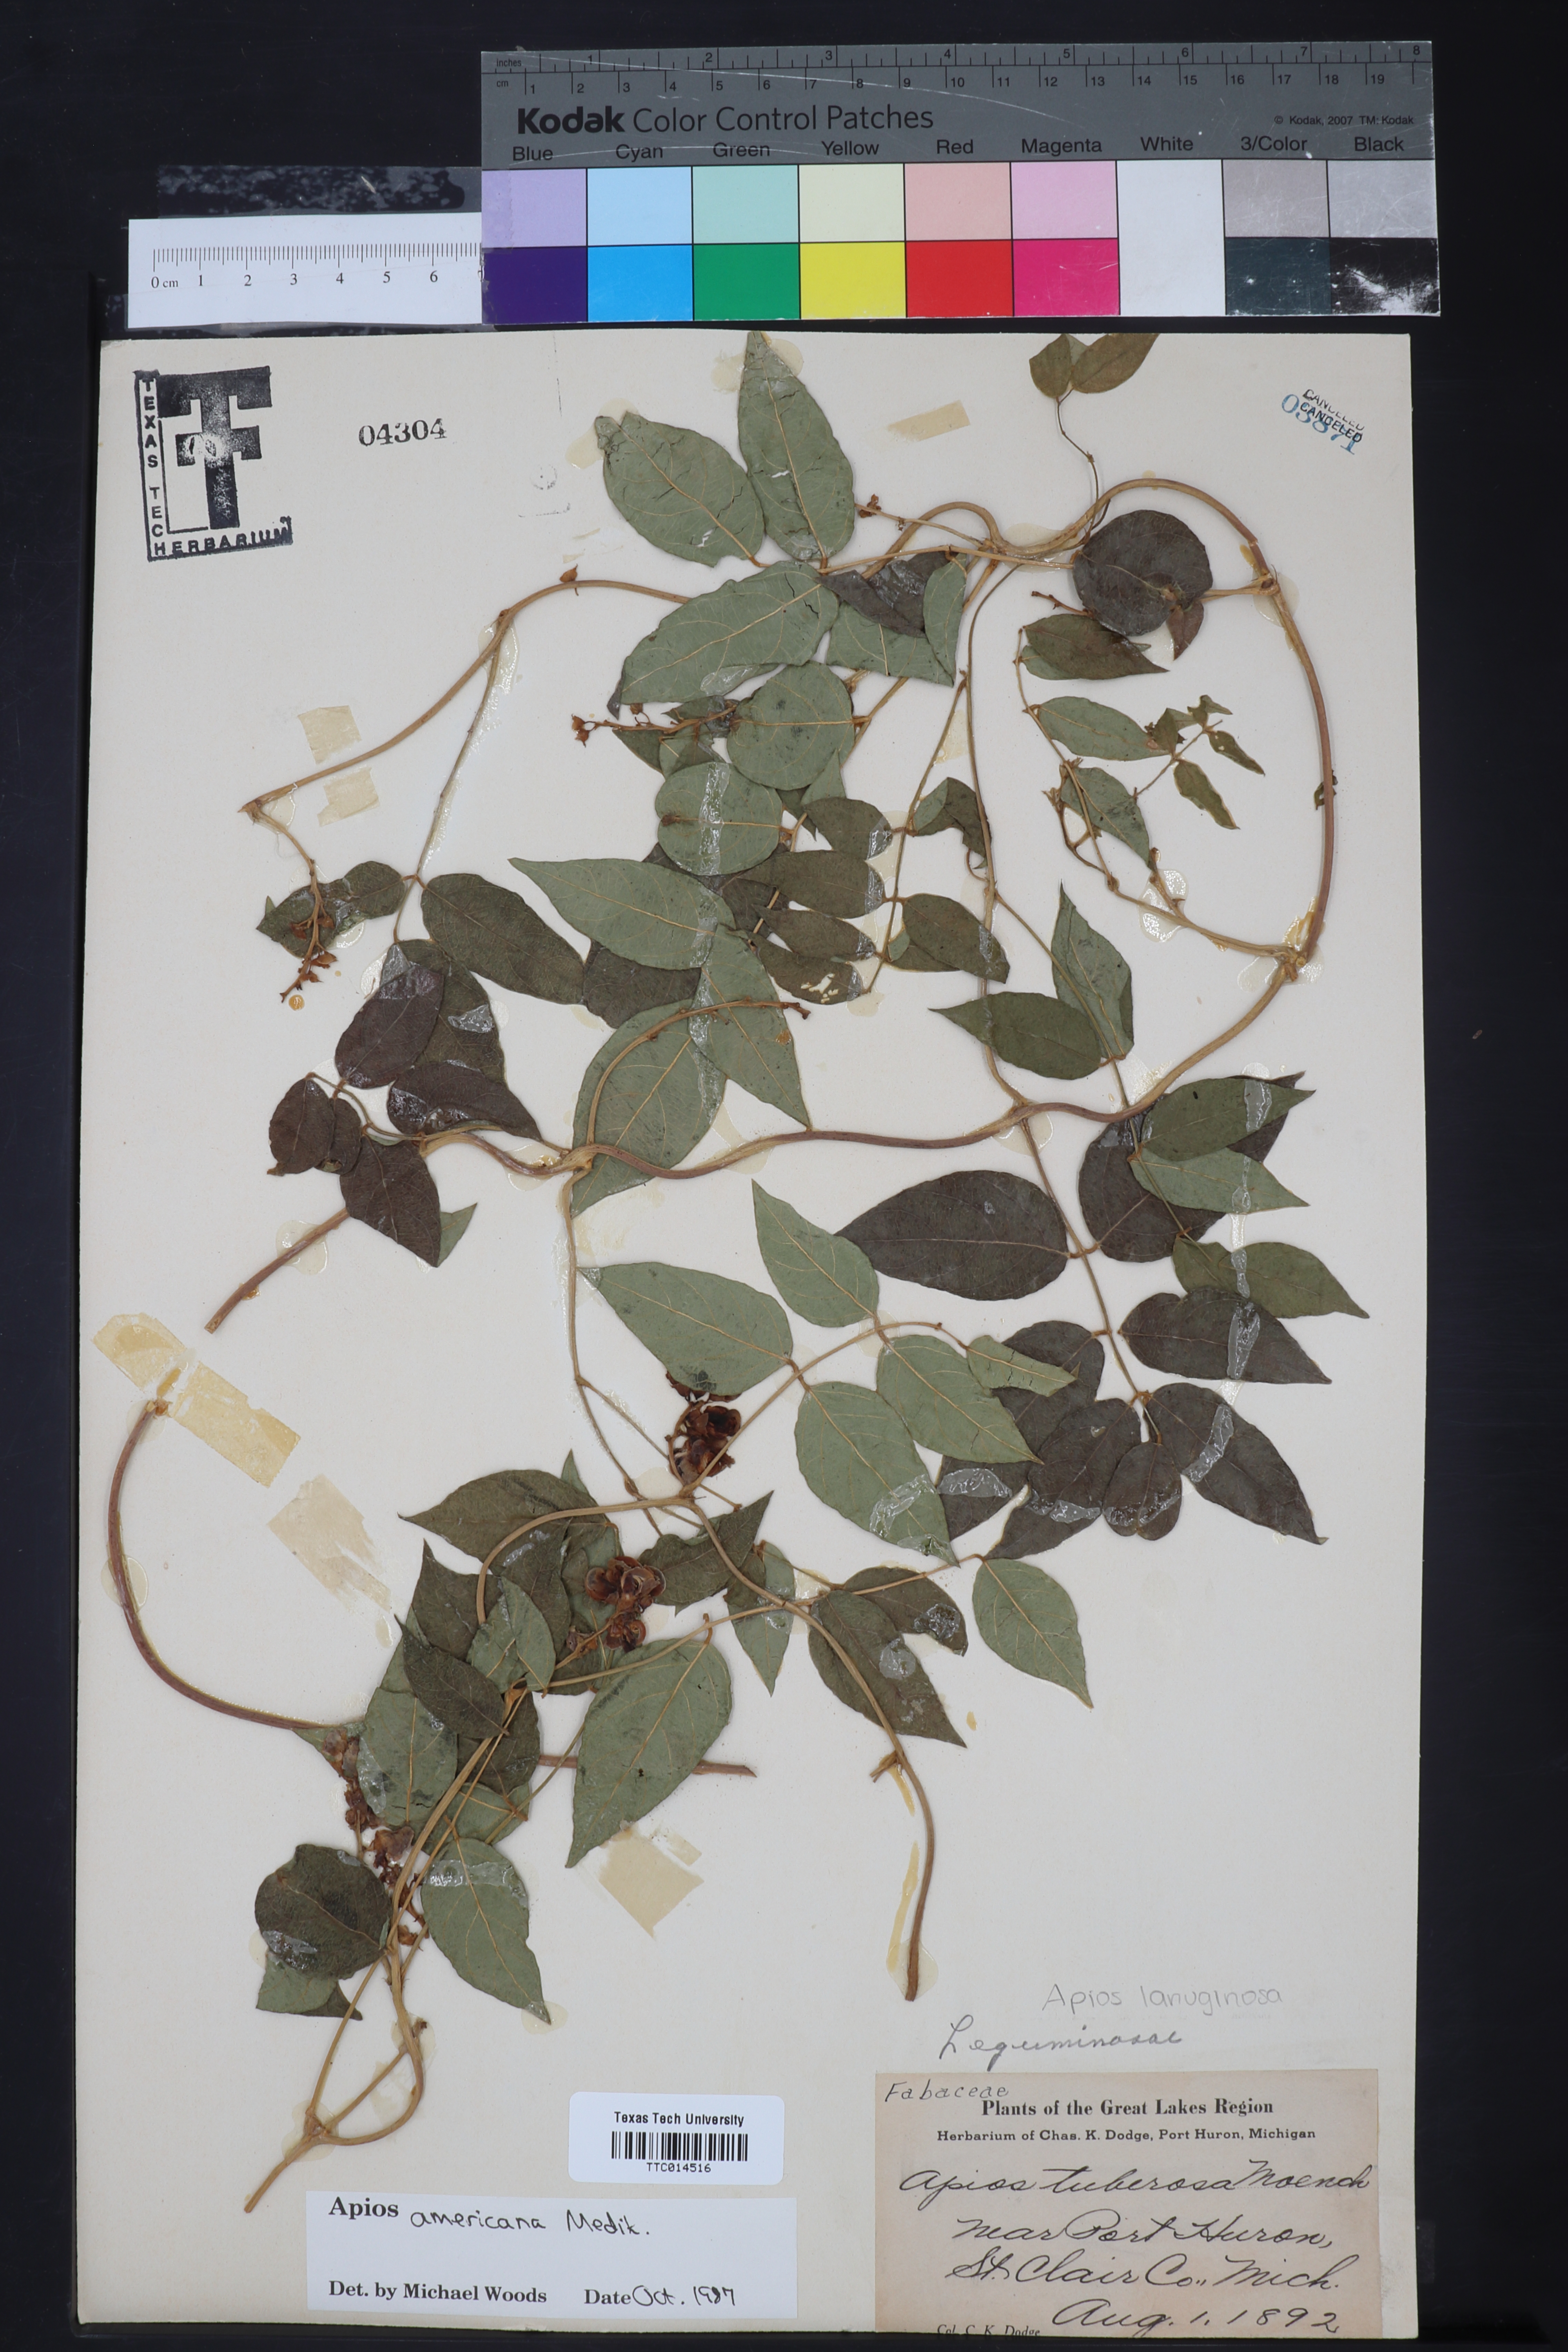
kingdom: Plantae
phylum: Tracheophyta
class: Magnoliopsida
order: Fabales
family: Fabaceae
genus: Apios
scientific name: Apios americana
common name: American potato-bean
